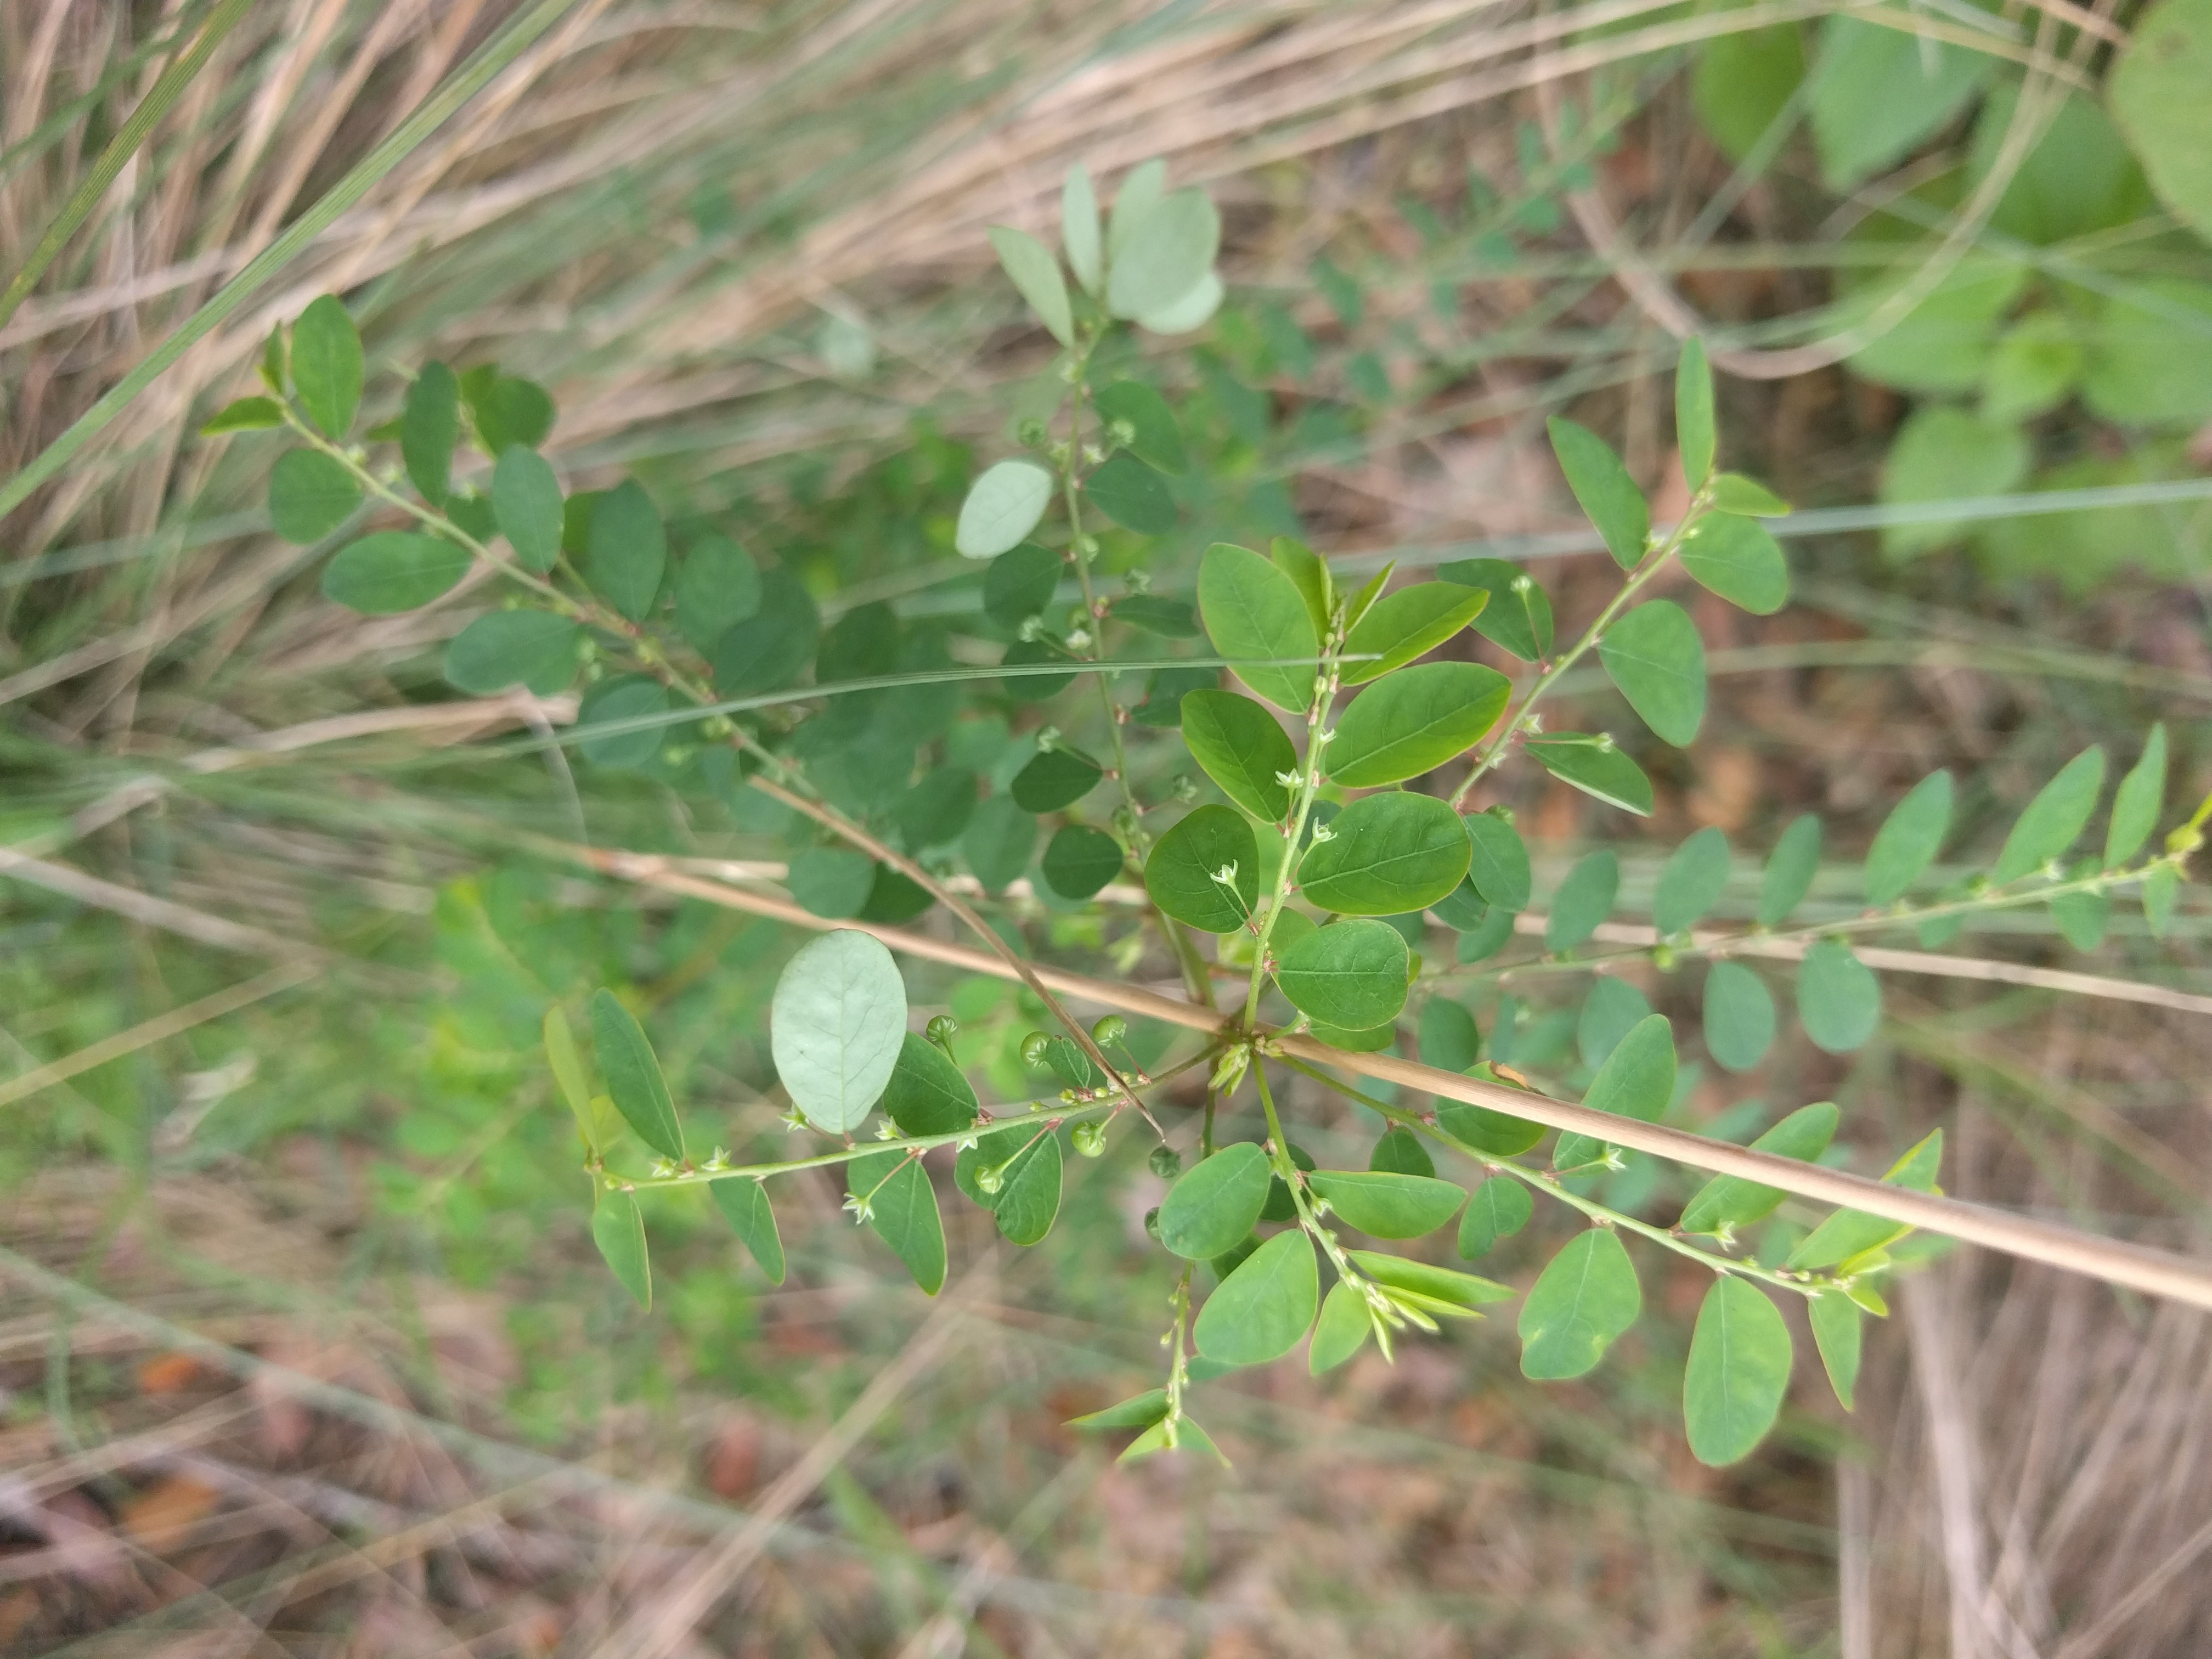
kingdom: Plantae
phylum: Tracheophyta
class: Magnoliopsida
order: Malpighiales
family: Phyllanthaceae
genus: Phyllanthus
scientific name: Phyllanthus tenellus
